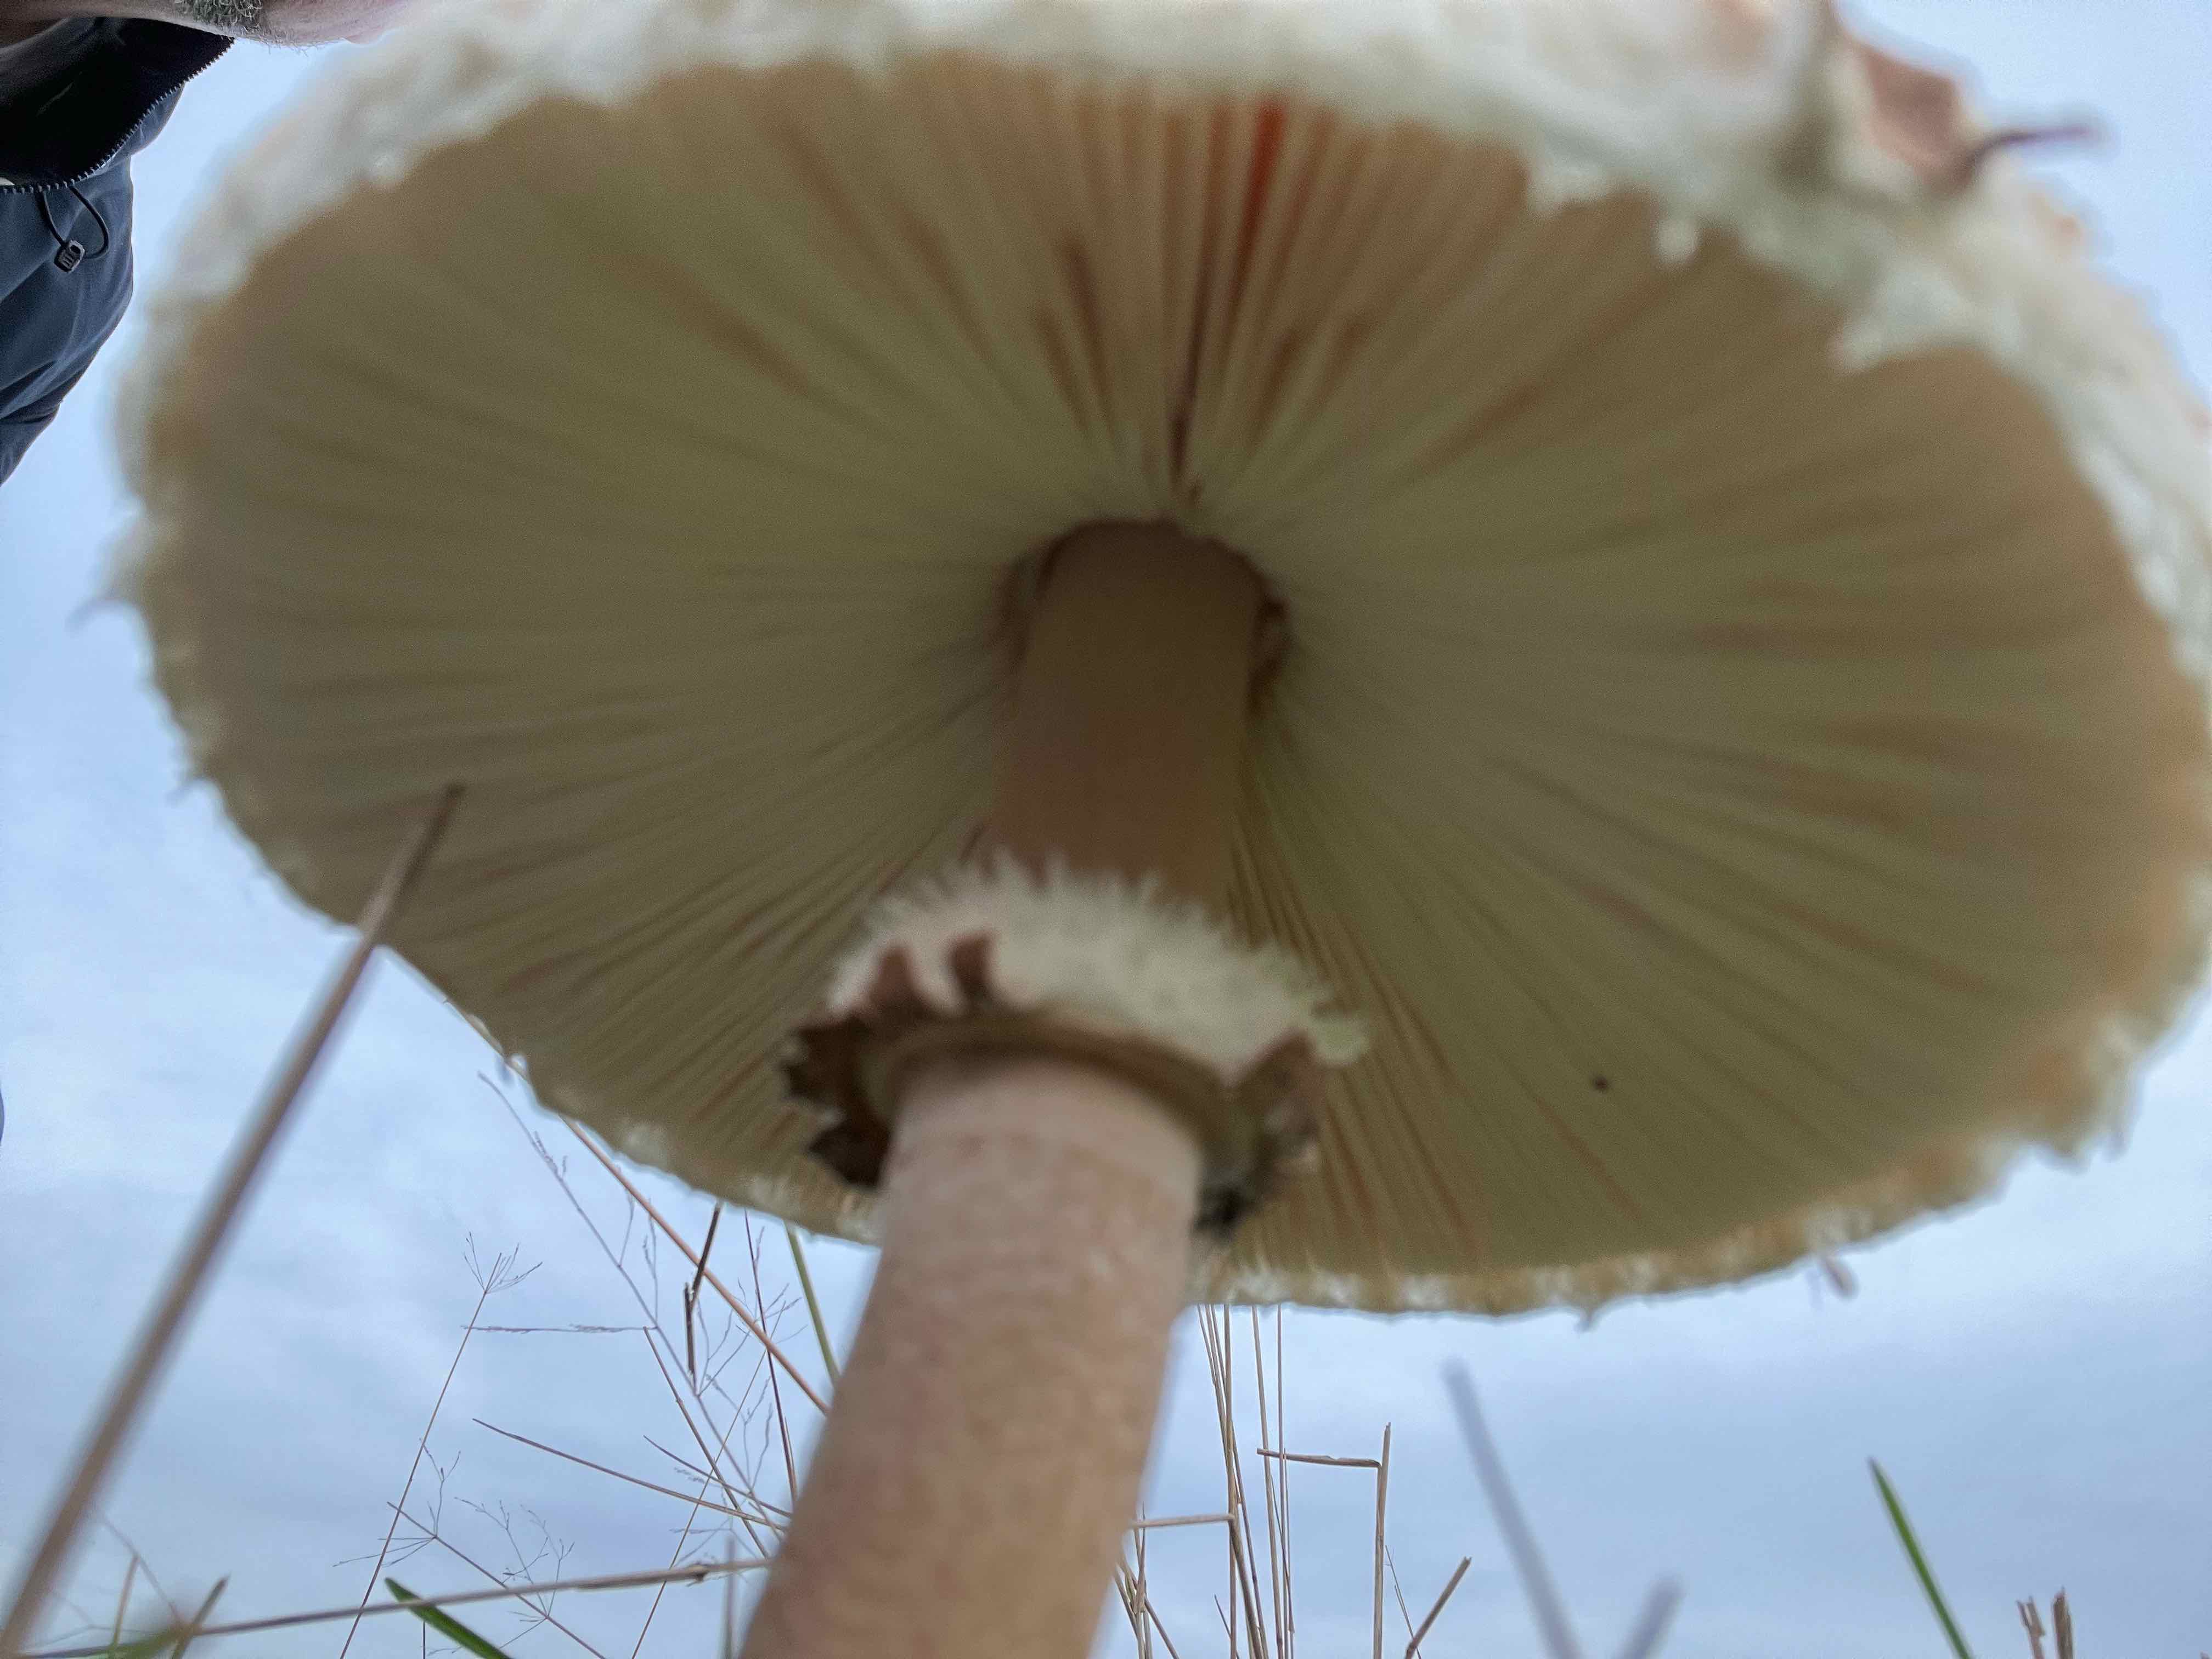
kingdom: Fungi
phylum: Basidiomycota
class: Agaricomycetes
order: Agaricales
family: Agaricaceae
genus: Macrolepiota
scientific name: Macrolepiota procera
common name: stor kæmpeparasolhat
